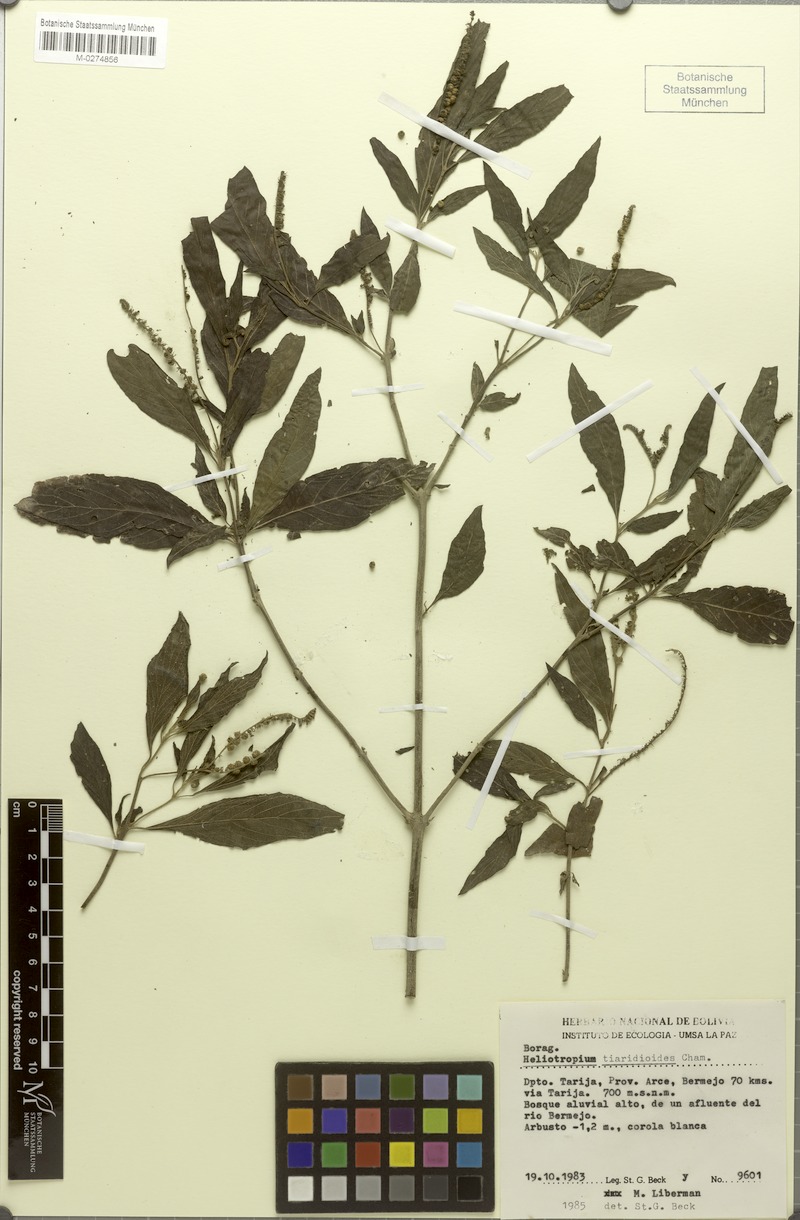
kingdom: Plantae
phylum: Tracheophyta
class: Magnoliopsida
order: Boraginales
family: Heliotropiaceae
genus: Heliotropium
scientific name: Heliotropium transalpinum
